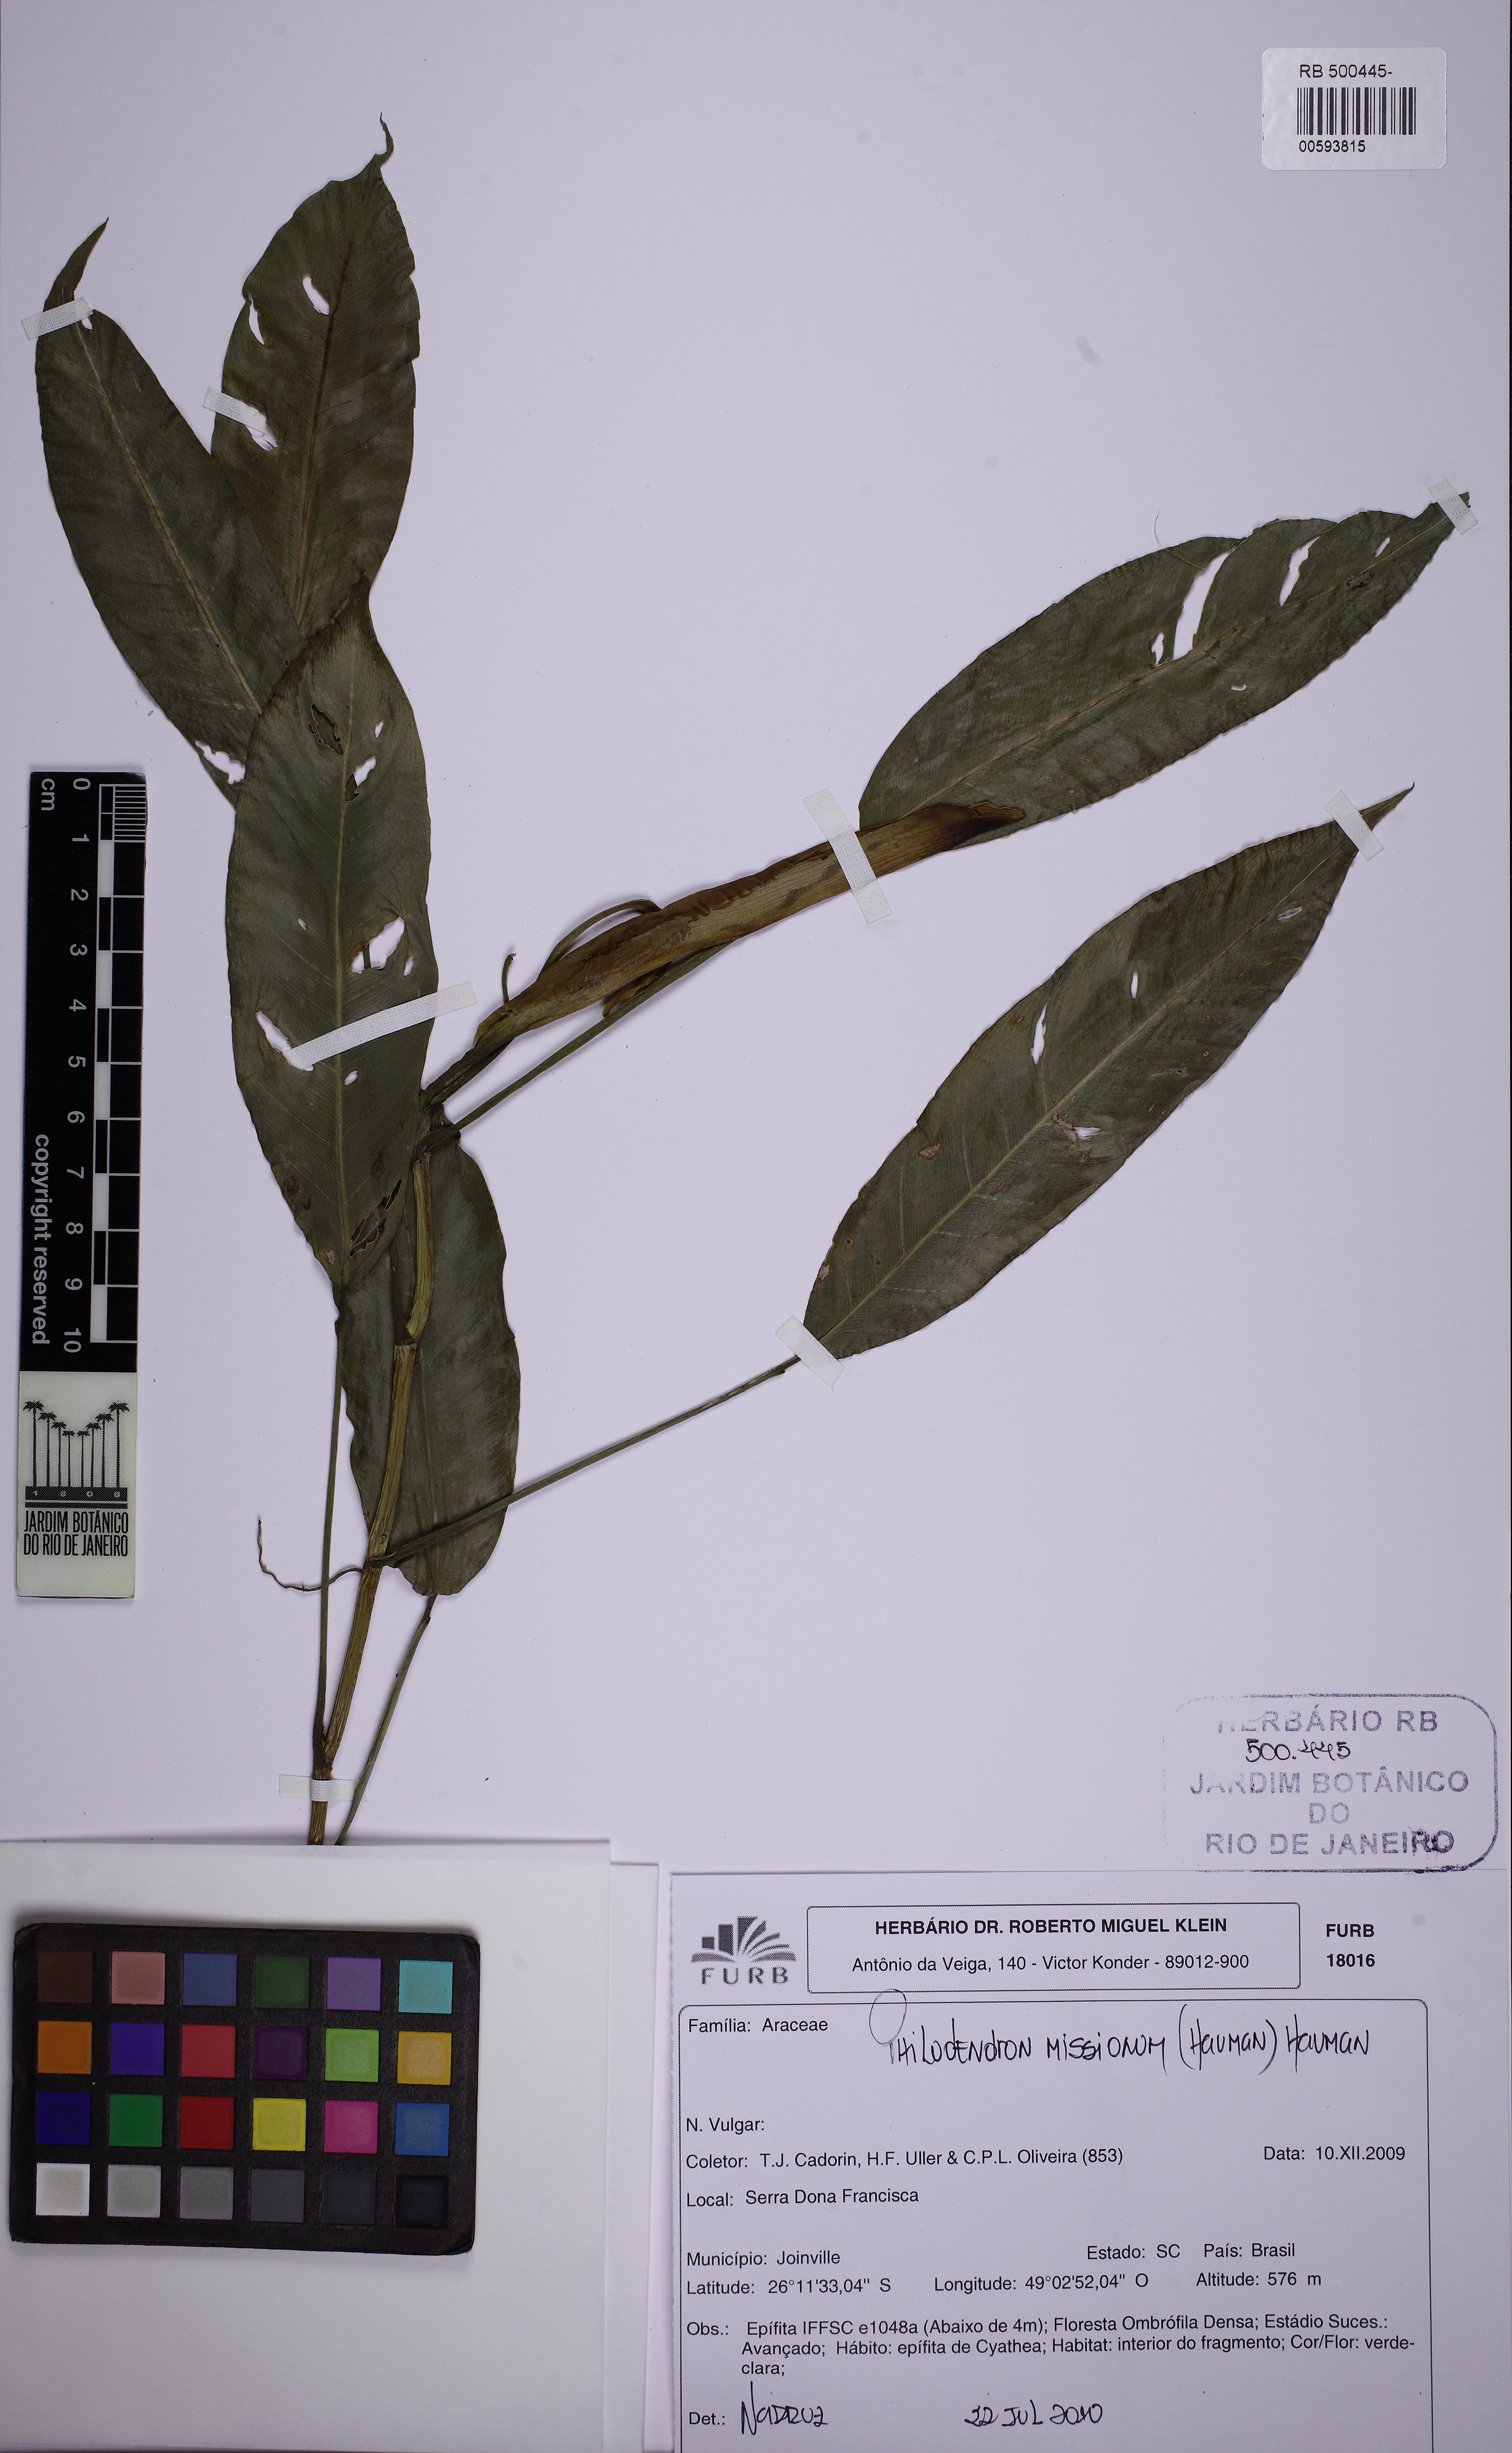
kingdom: Plantae
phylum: Tracheophyta
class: Liliopsida
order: Alismatales
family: Araceae
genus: Philodendron
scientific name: Philodendron missionum
